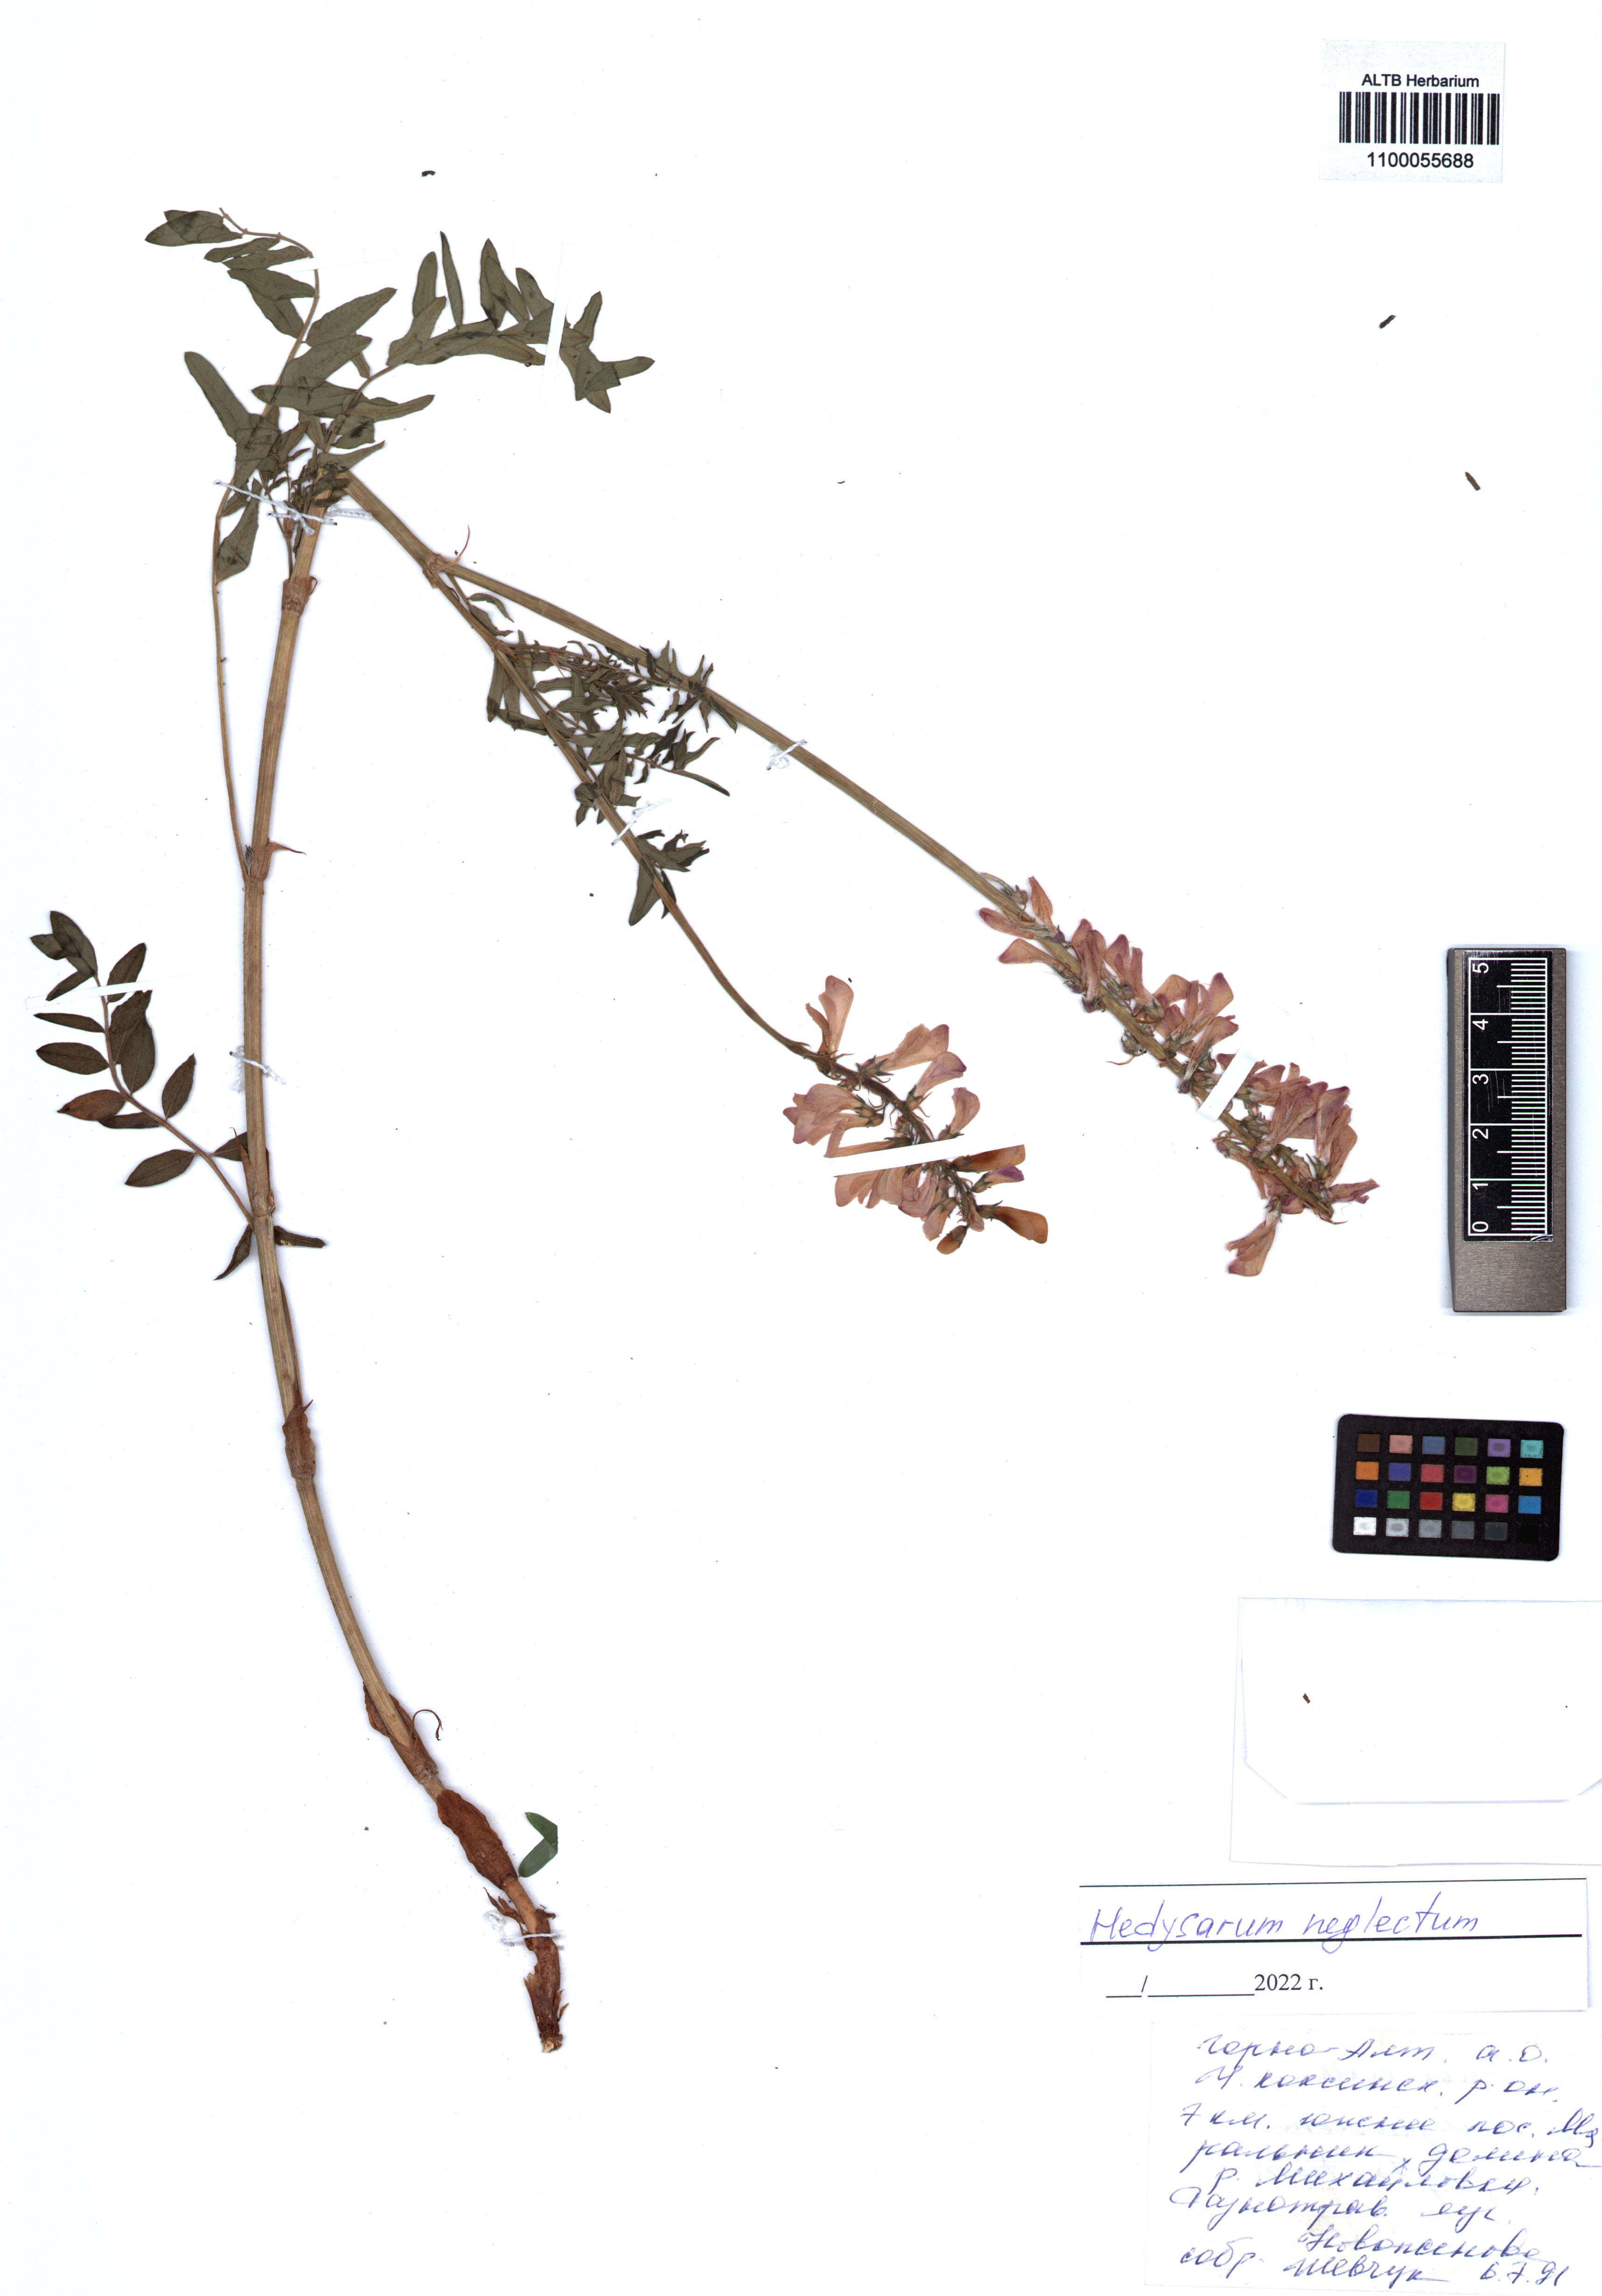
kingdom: Plantae
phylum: Tracheophyta
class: Magnoliopsida
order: Fabales
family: Fabaceae
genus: Hedysarum
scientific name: Hedysarum neglectum
